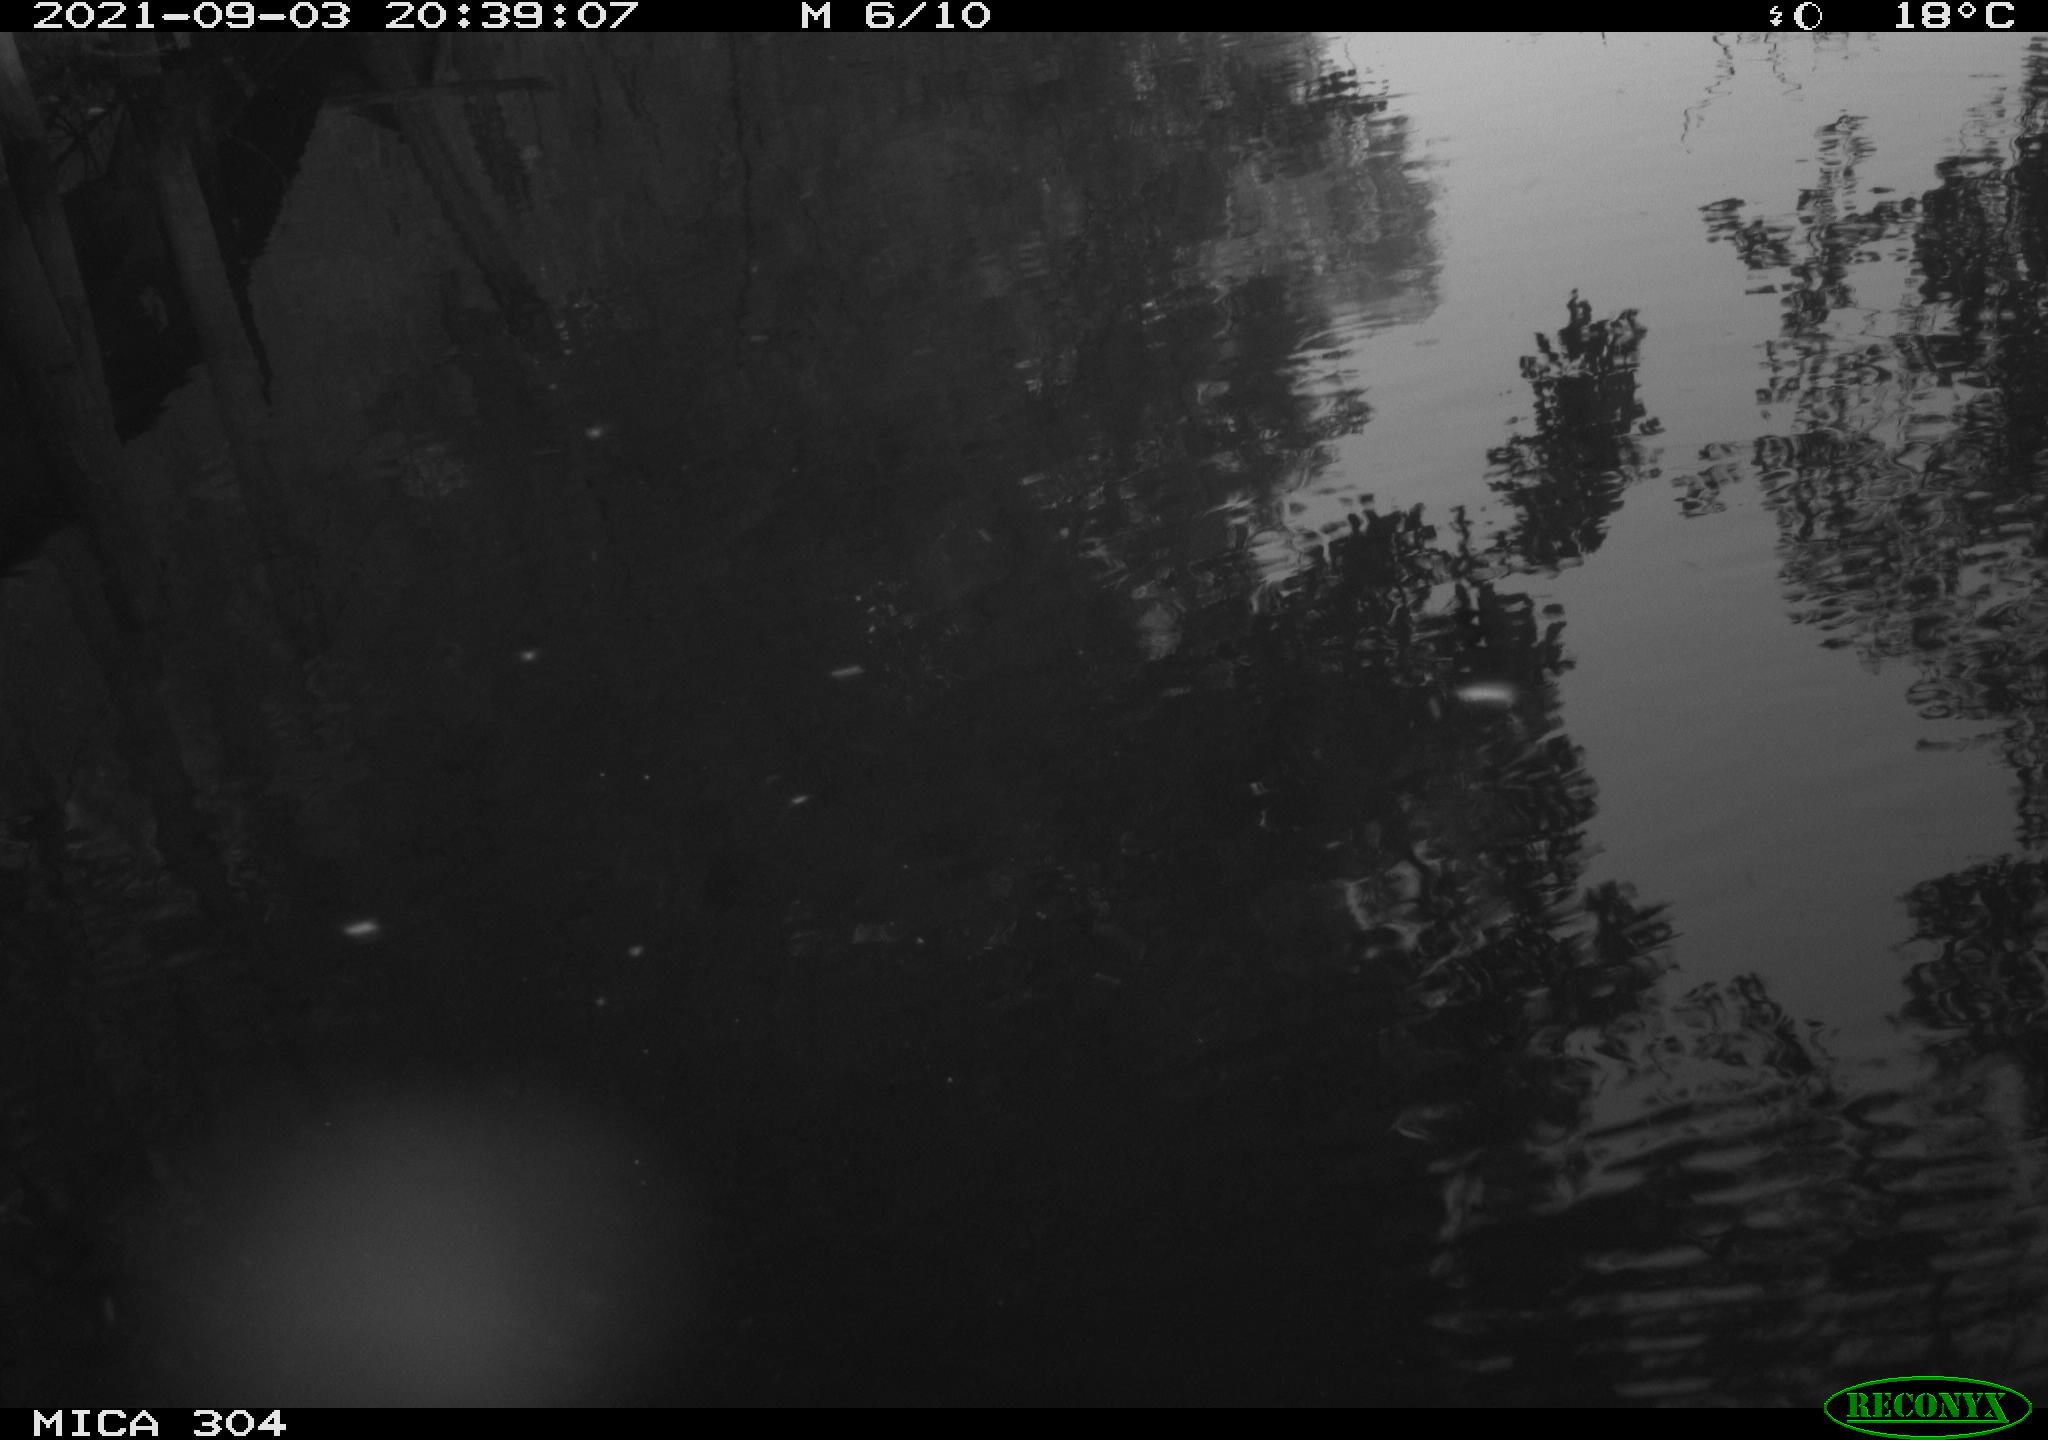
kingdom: Animalia
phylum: Chordata
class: Aves
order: Gruiformes
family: Rallidae
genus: Gallinula
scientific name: Gallinula chloropus
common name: Common moorhen
